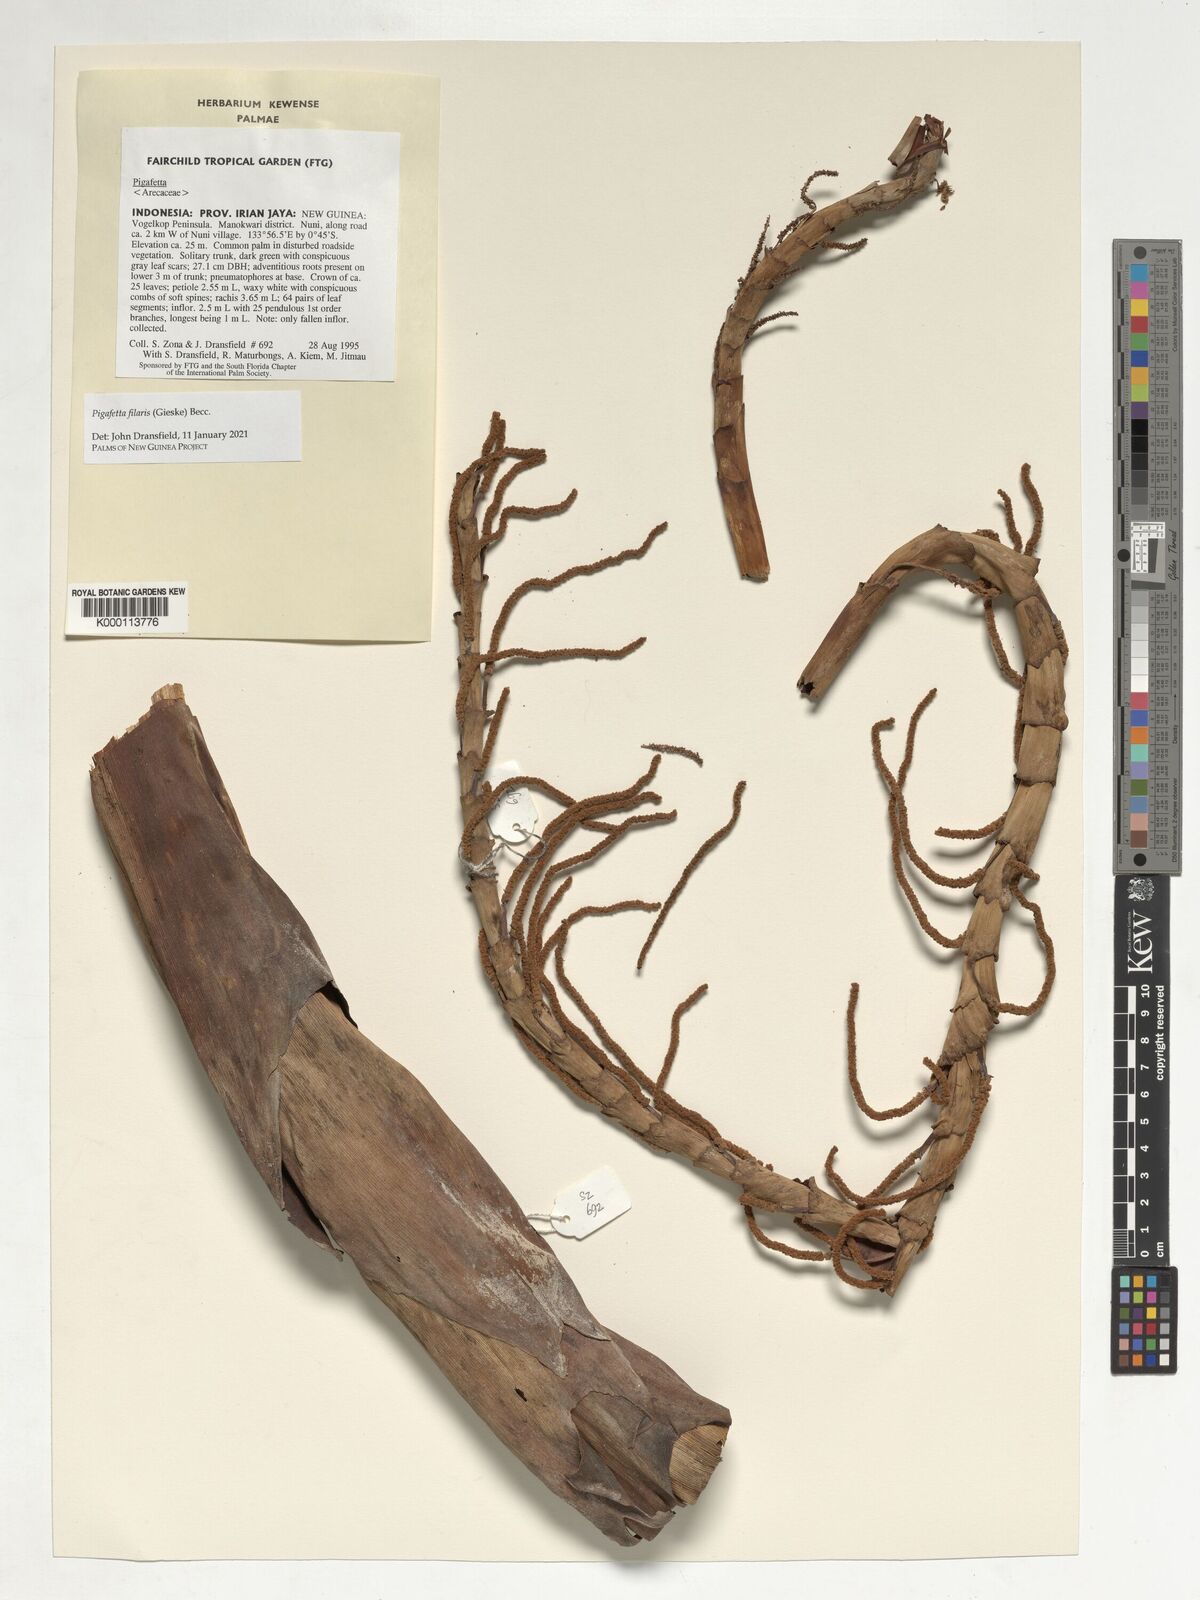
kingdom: Plantae
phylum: Tracheophyta
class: Liliopsida
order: Arecales
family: Arecaceae
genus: Pigafetta
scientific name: Pigafetta filaris
